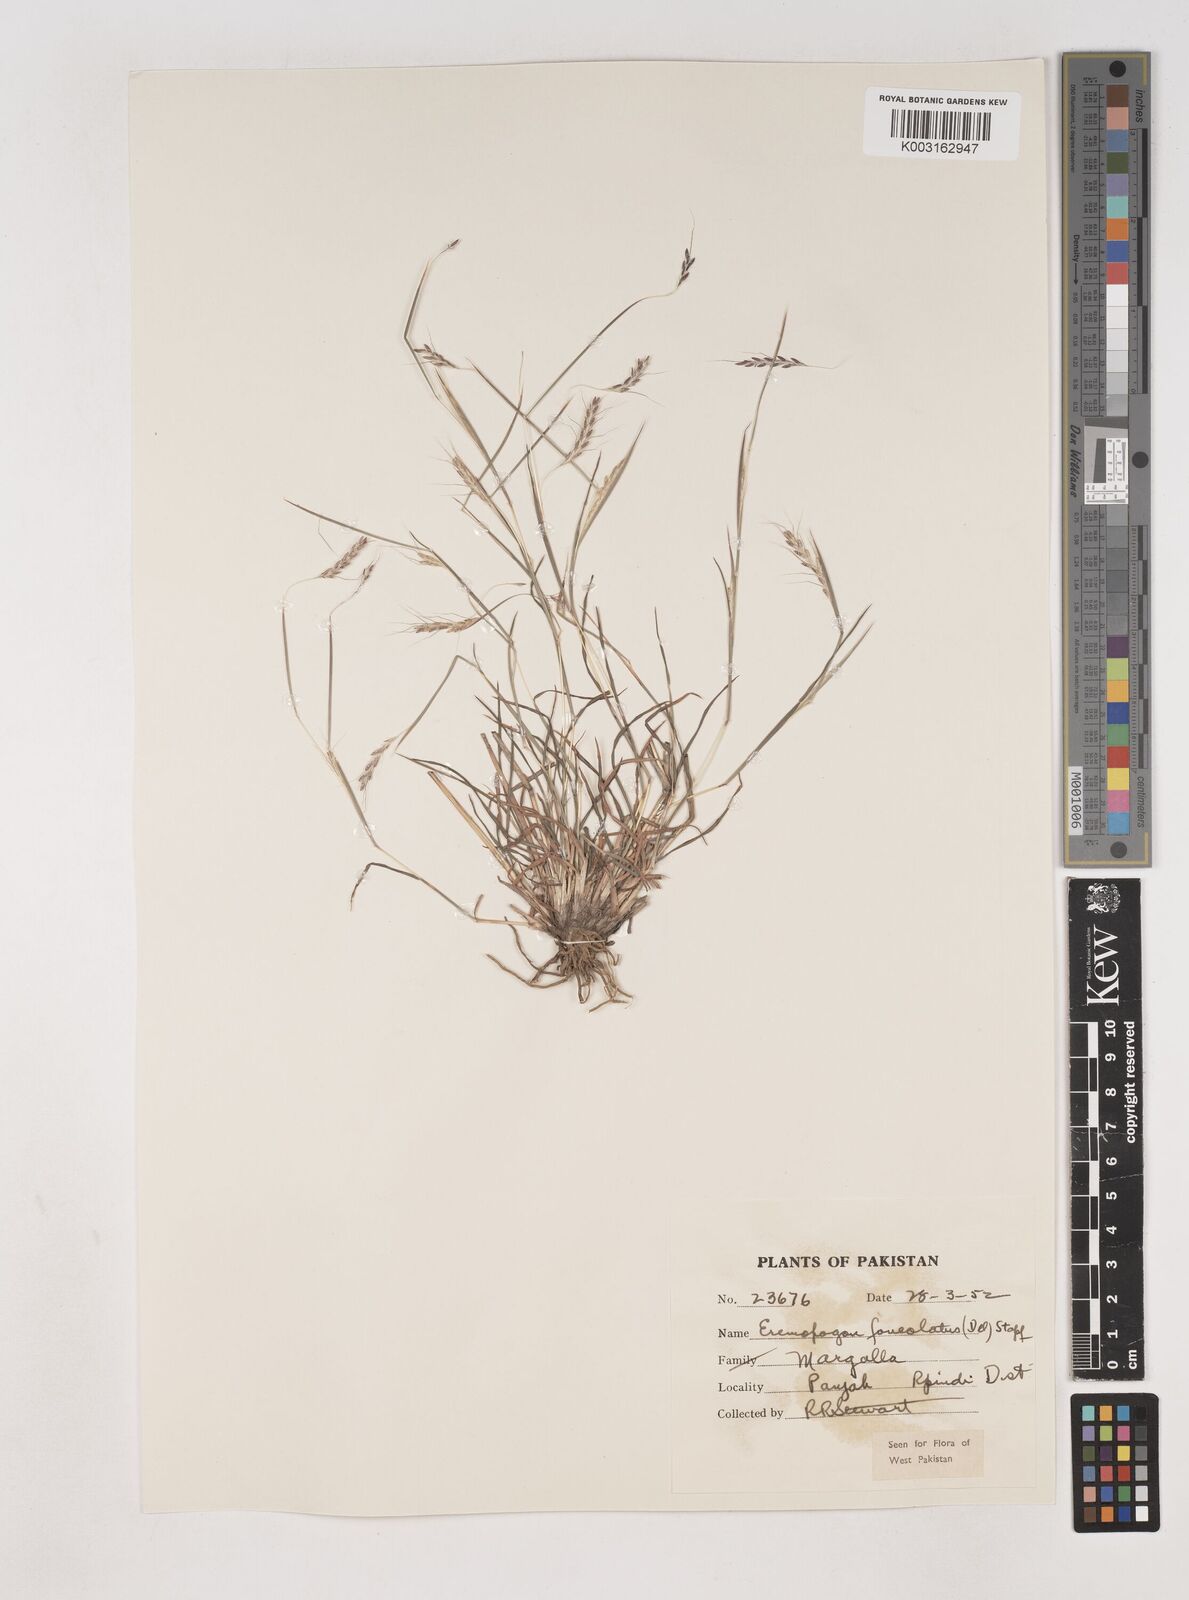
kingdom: Plantae
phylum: Tracheophyta
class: Liliopsida
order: Poales
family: Poaceae
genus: Dichanthium
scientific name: Dichanthium
